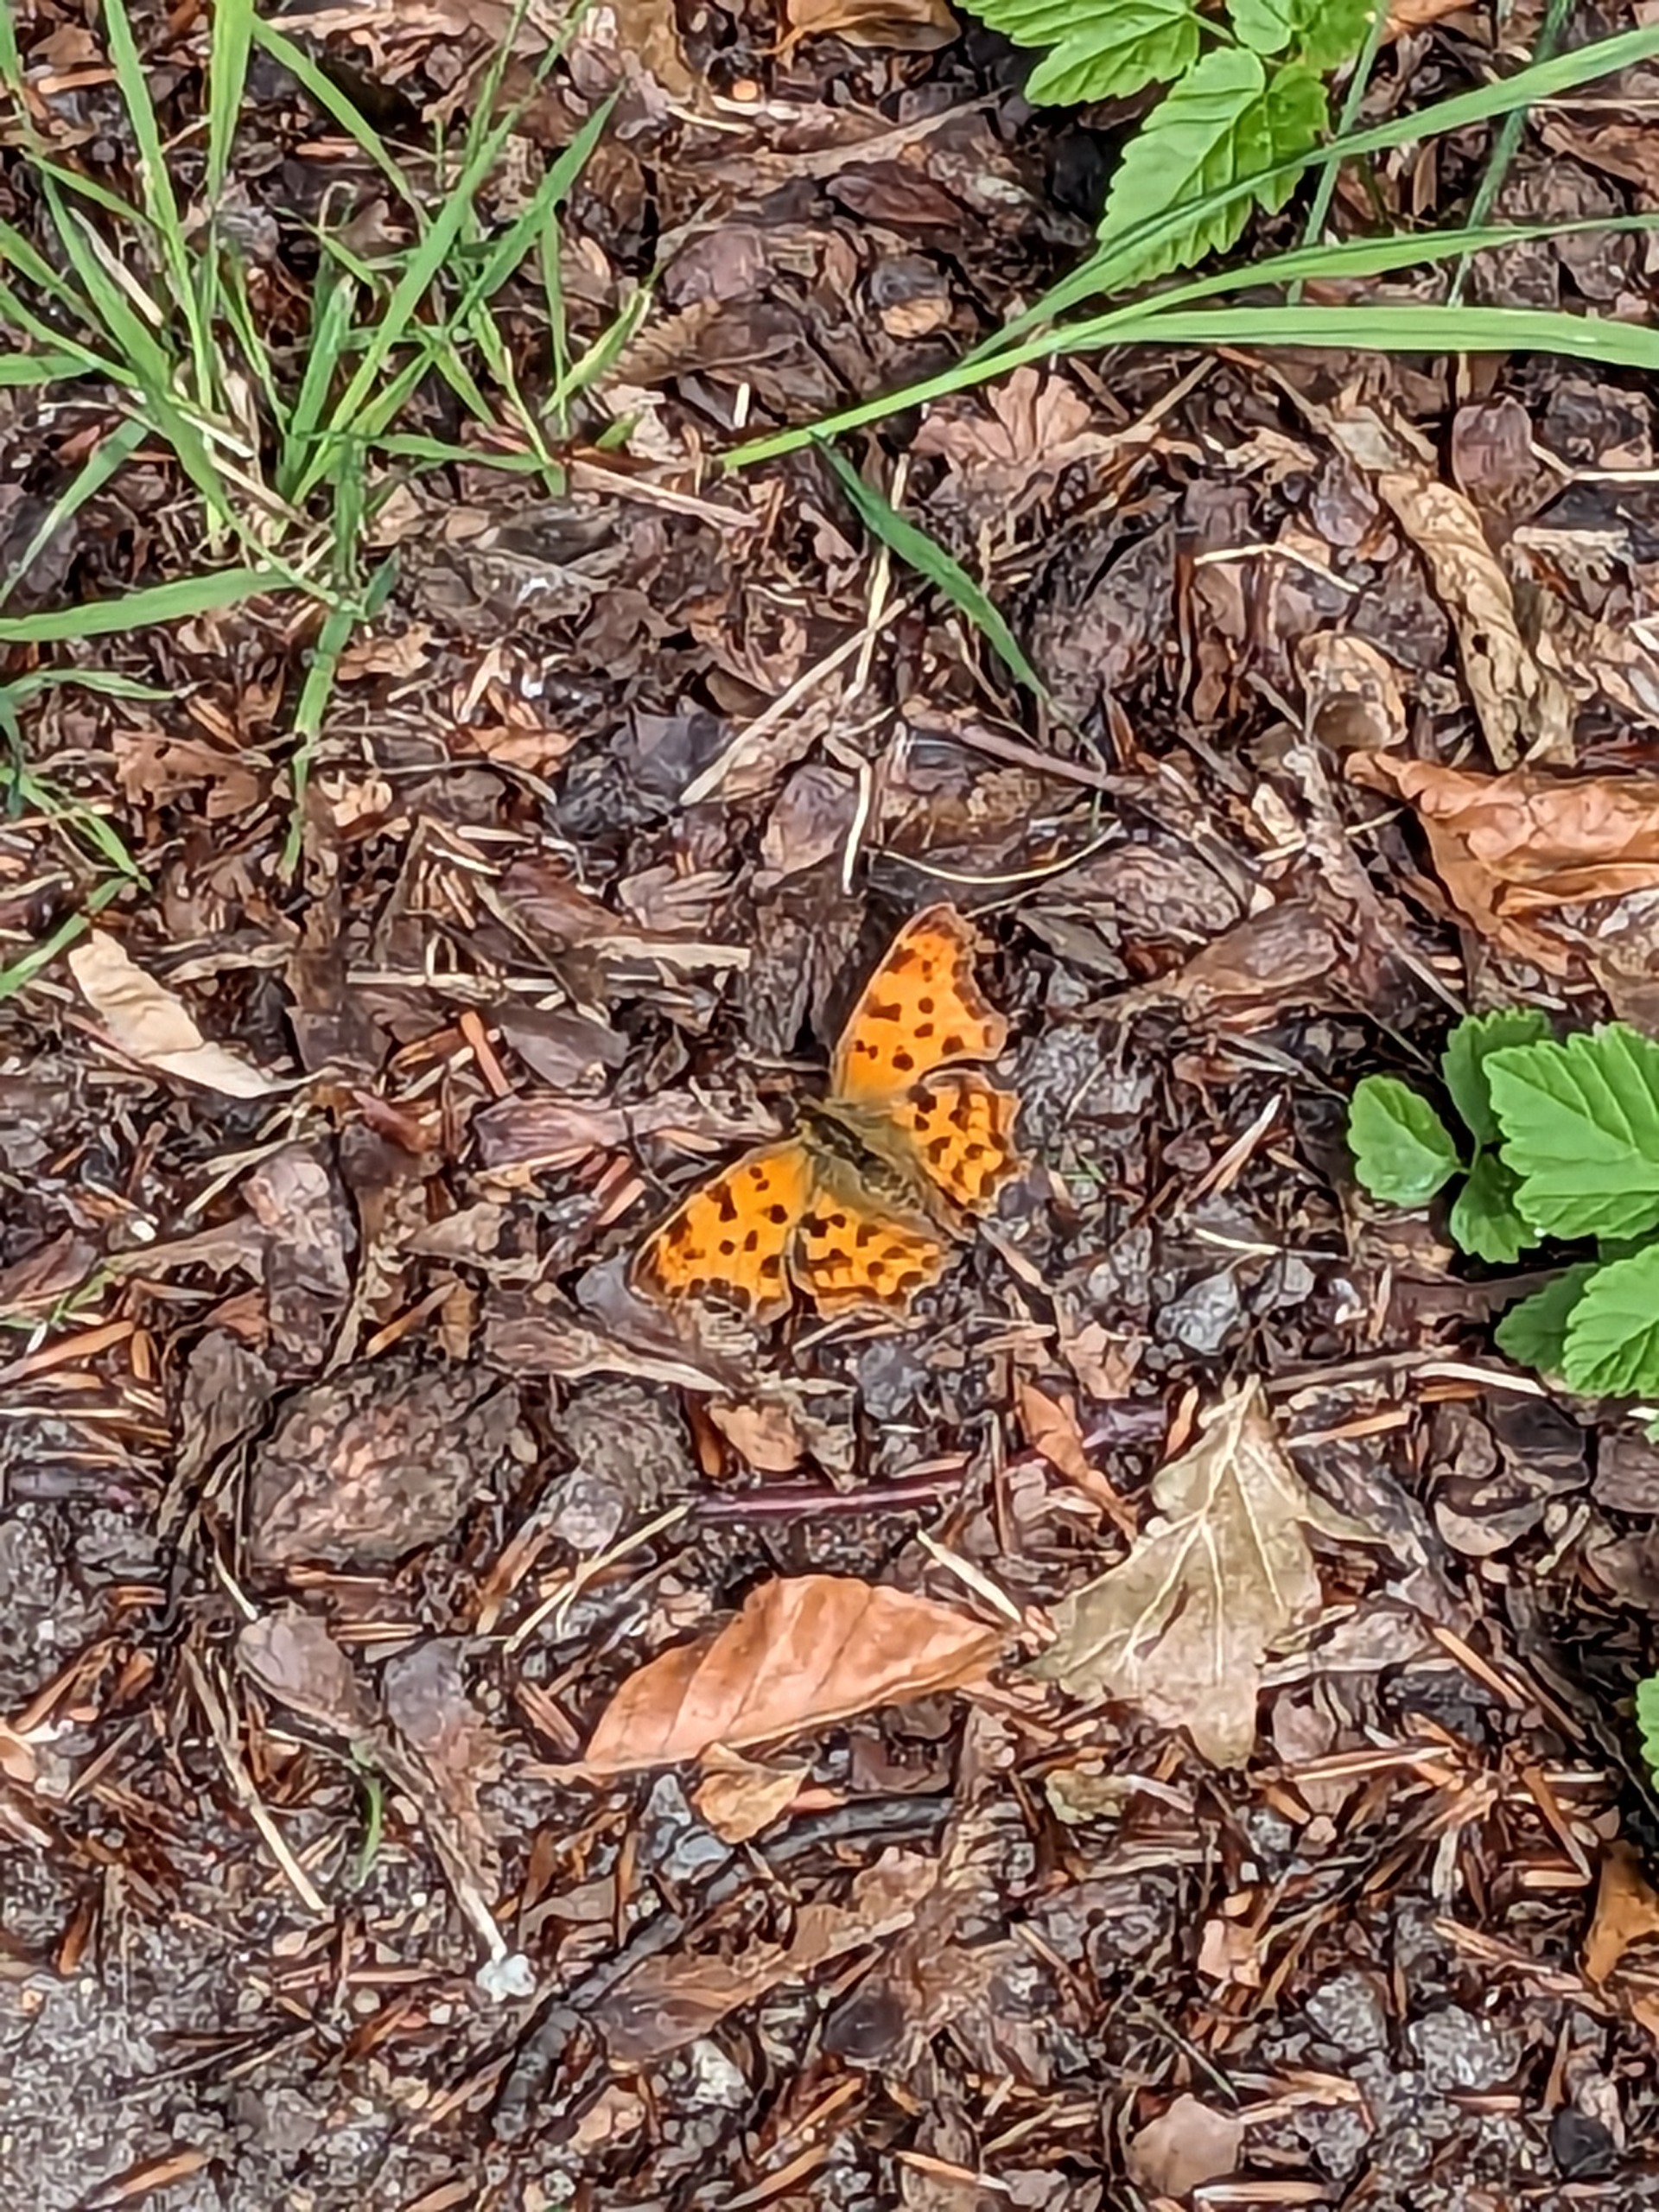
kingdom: Animalia
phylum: Arthropoda
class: Insecta
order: Lepidoptera
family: Nymphalidae
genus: Polygonia
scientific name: Polygonia c-album
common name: Det hvide C
